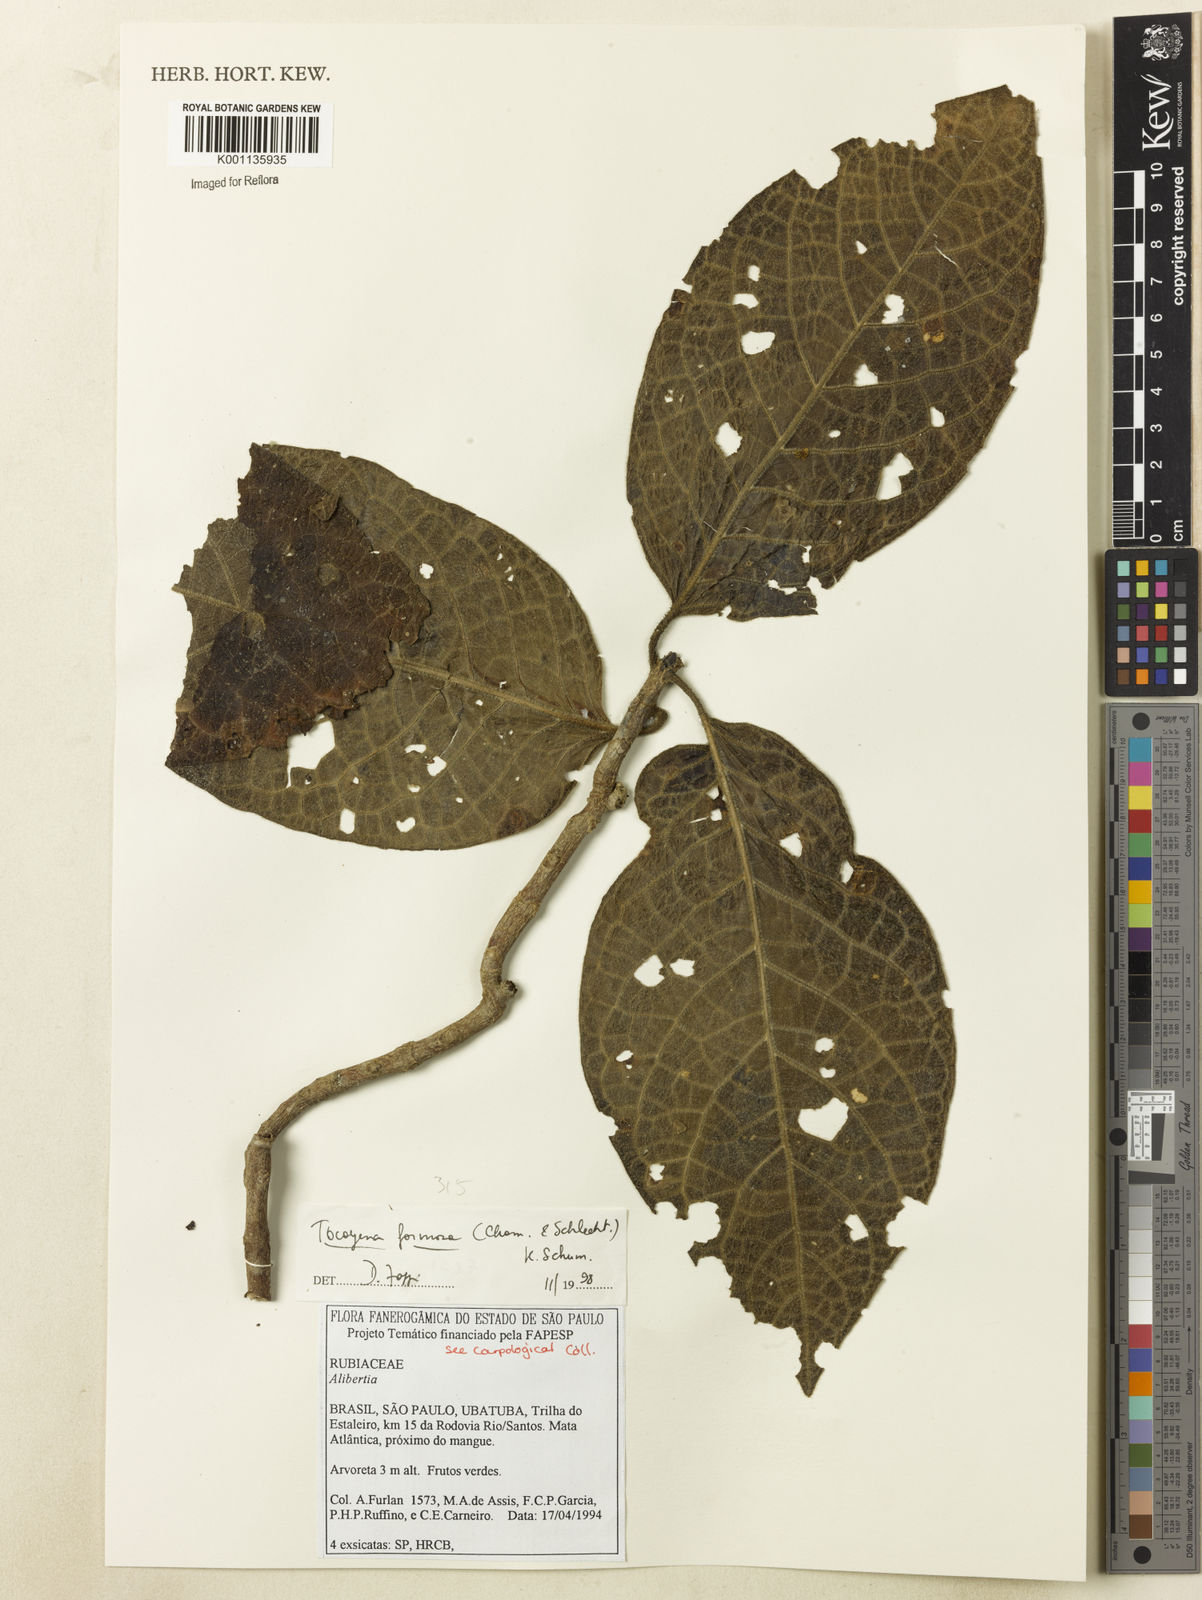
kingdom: Plantae
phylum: Tracheophyta
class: Magnoliopsida
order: Gentianales
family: Rubiaceae
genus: Tocoyena
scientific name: Tocoyena formosa
